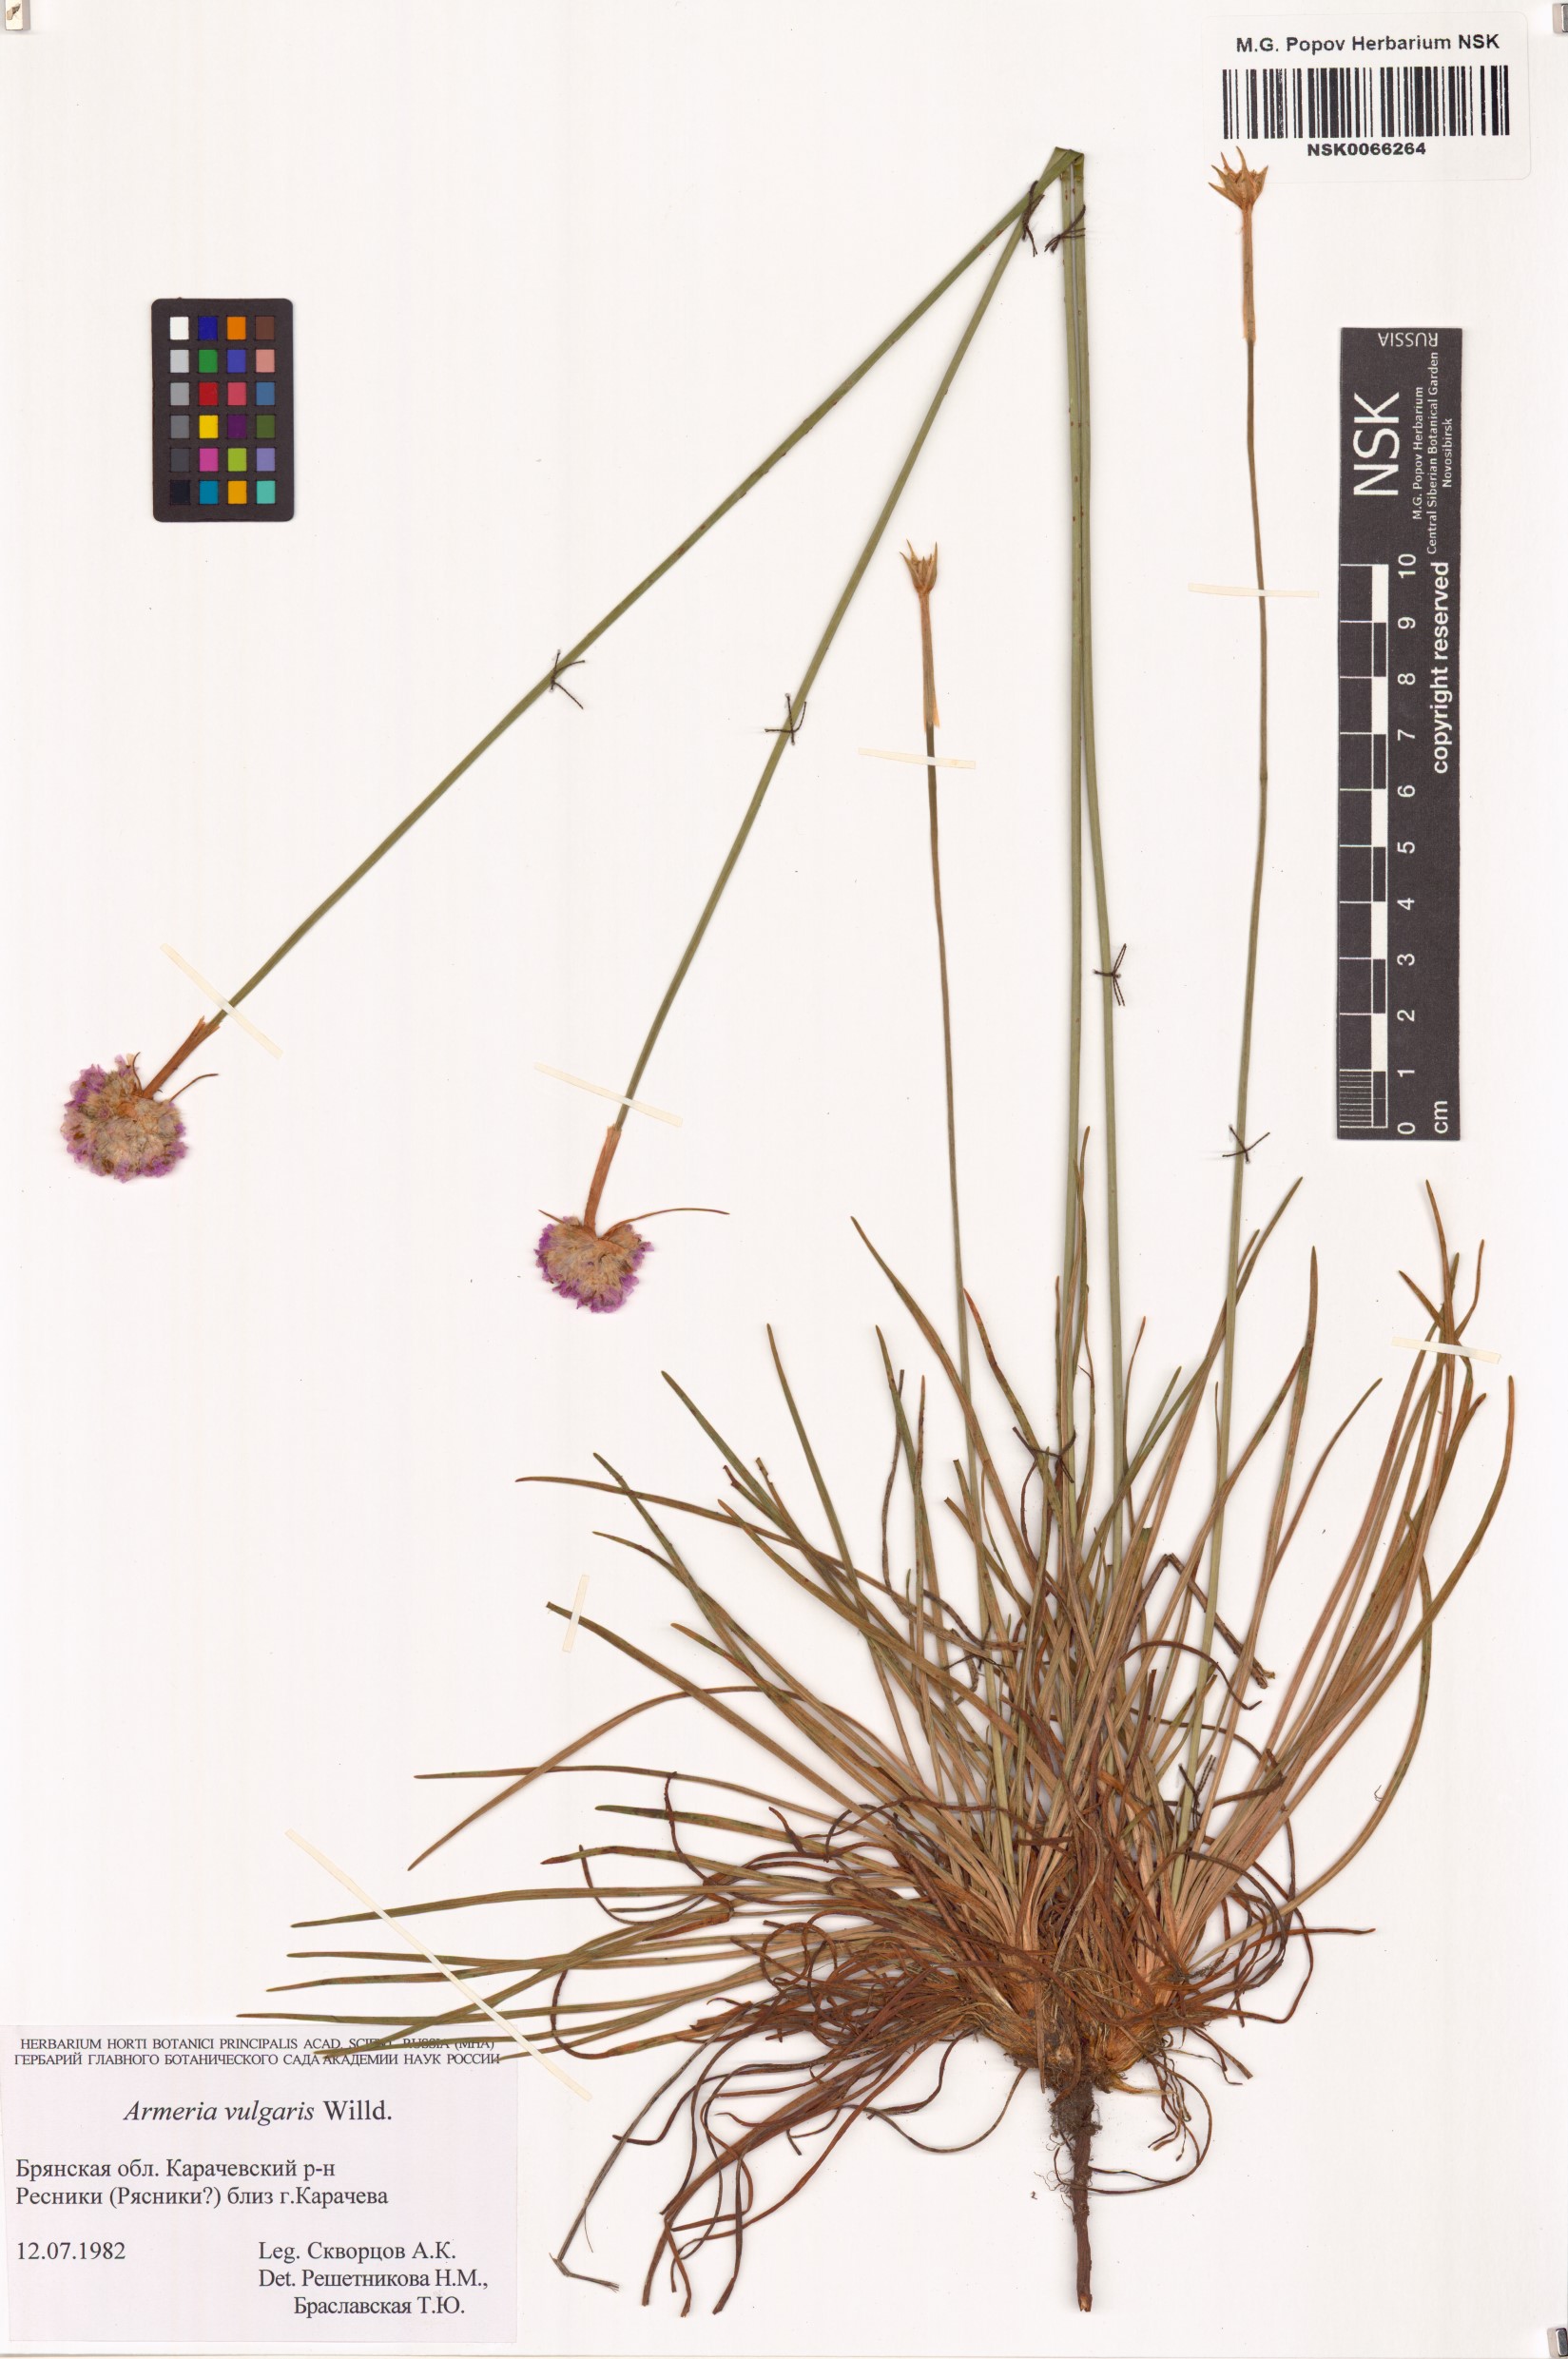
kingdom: Plantae
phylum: Tracheophyta
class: Magnoliopsida
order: Caryophyllales
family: Plumbaginaceae
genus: Armeria
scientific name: Armeria maritima
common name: Thrift
